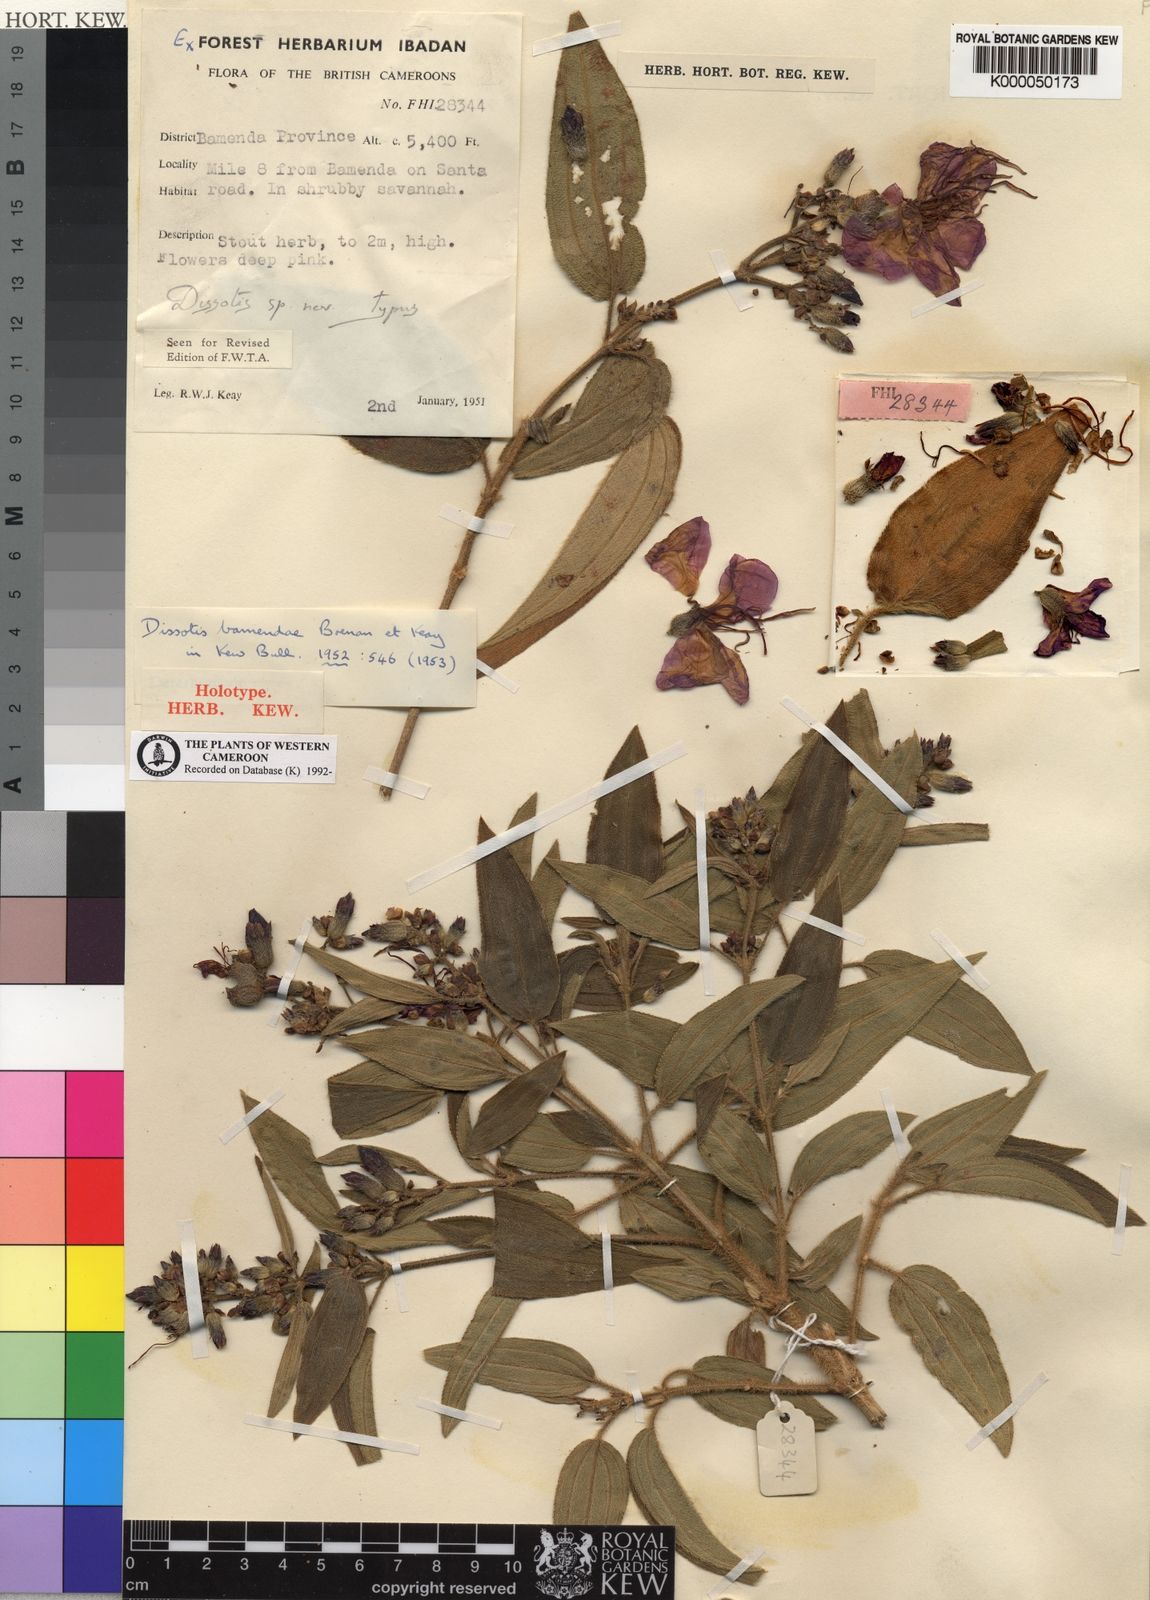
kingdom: Plantae
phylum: Tracheophyta
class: Magnoliopsida
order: Myrtales
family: Melastomataceae
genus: Rosettea
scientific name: Rosettea riparia
